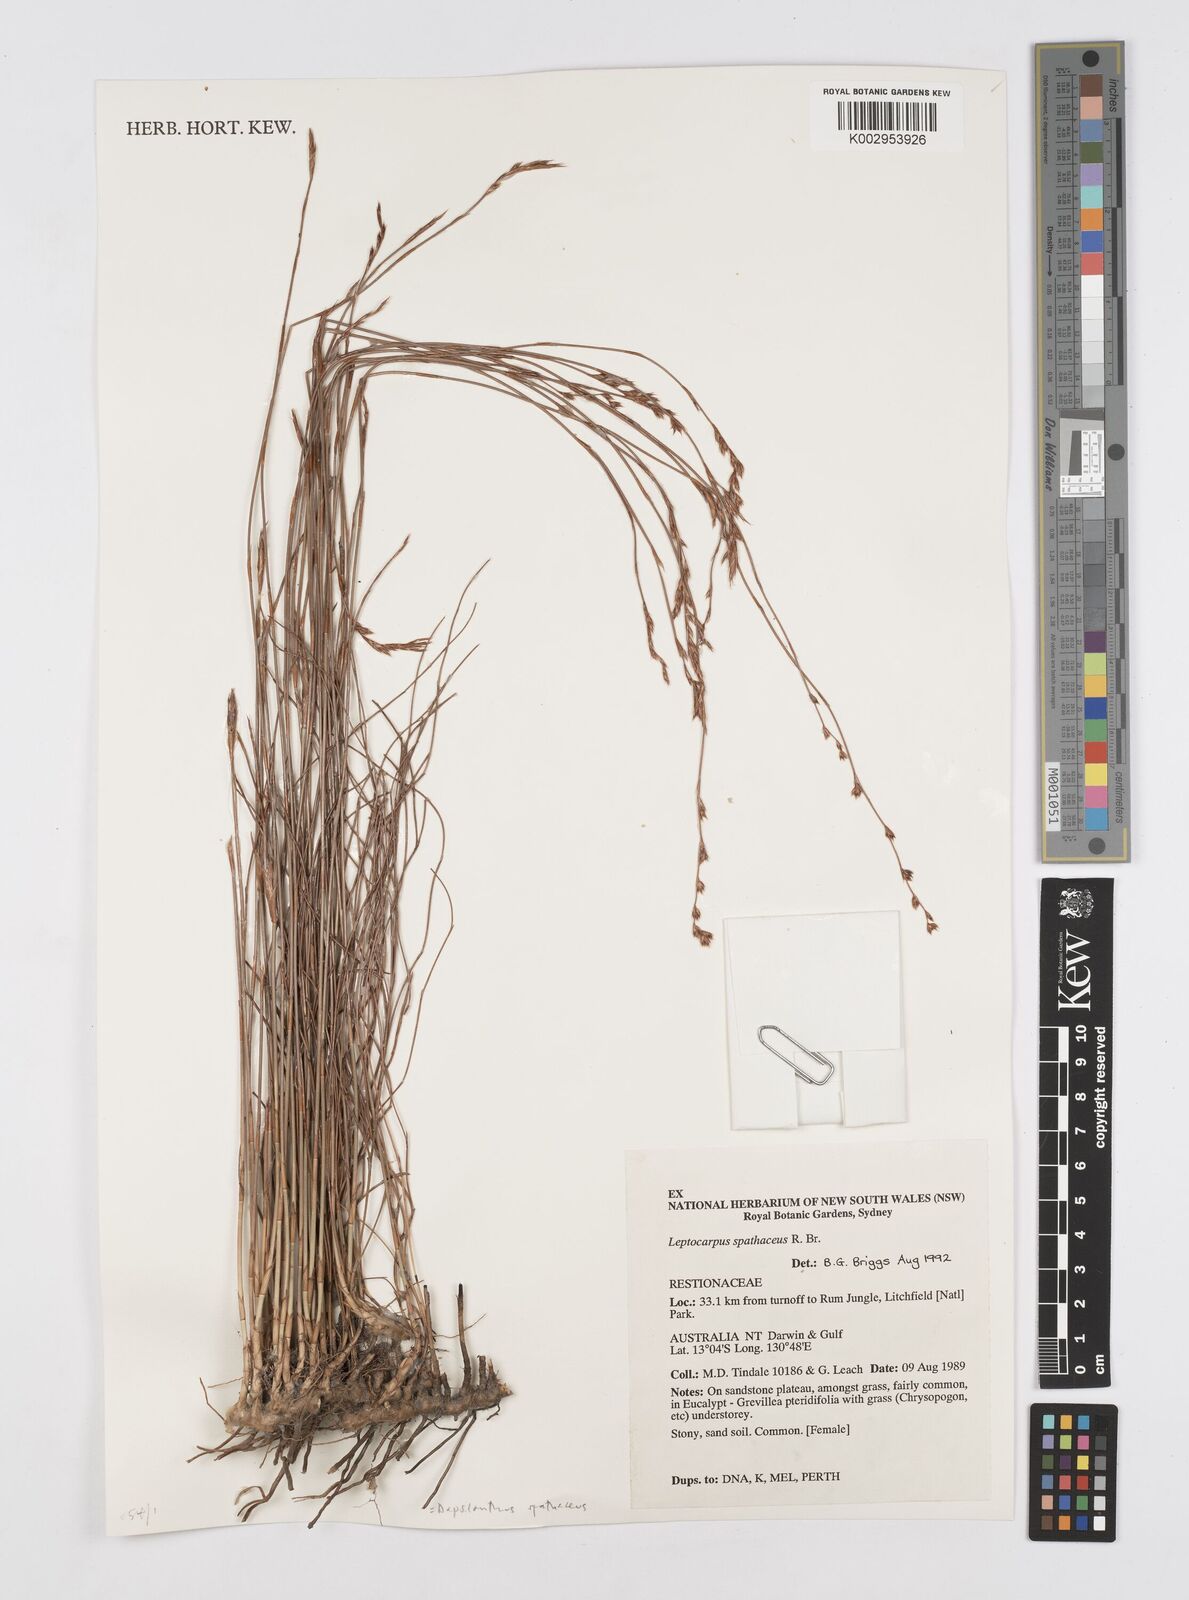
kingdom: Plantae
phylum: Tracheophyta
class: Liliopsida
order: Poales
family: Restionaceae
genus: Chaetanthus
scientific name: Chaetanthus aristatus
